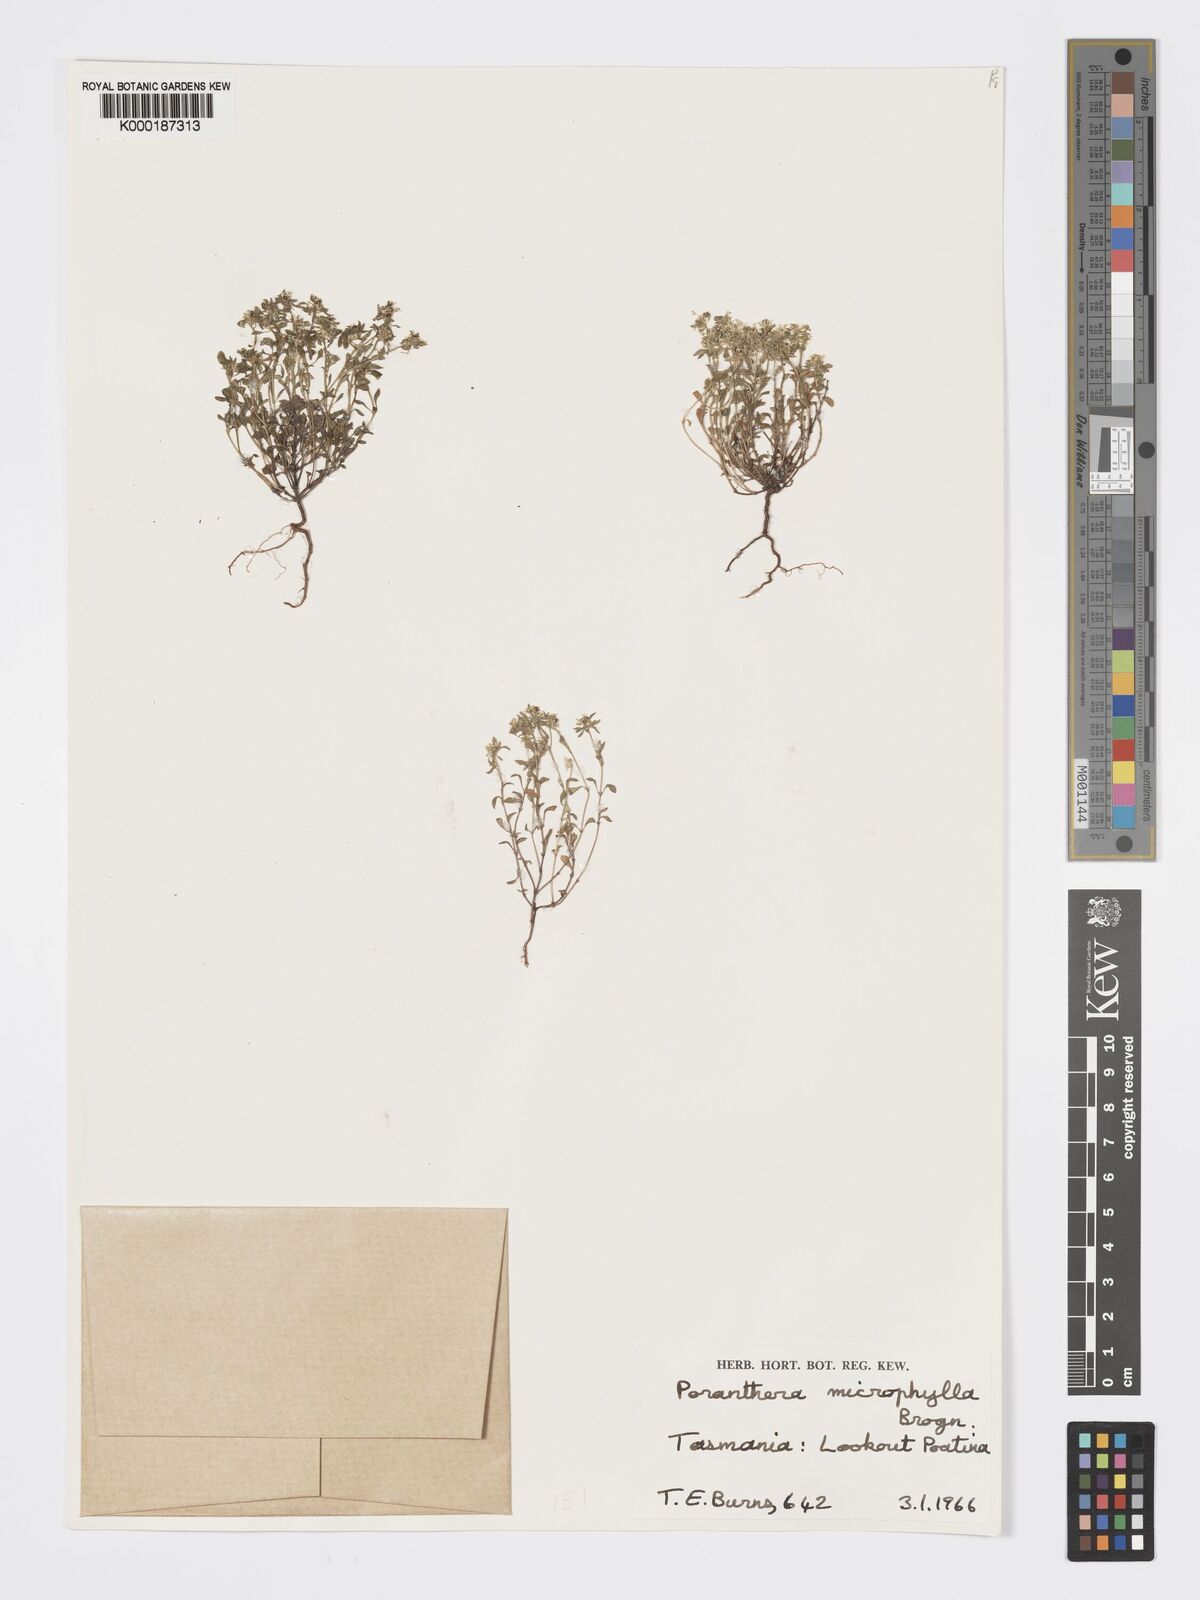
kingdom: Plantae
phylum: Tracheophyta
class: Magnoliopsida
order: Malpighiales
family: Phyllanthaceae
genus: Poranthera
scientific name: Poranthera microphylla
